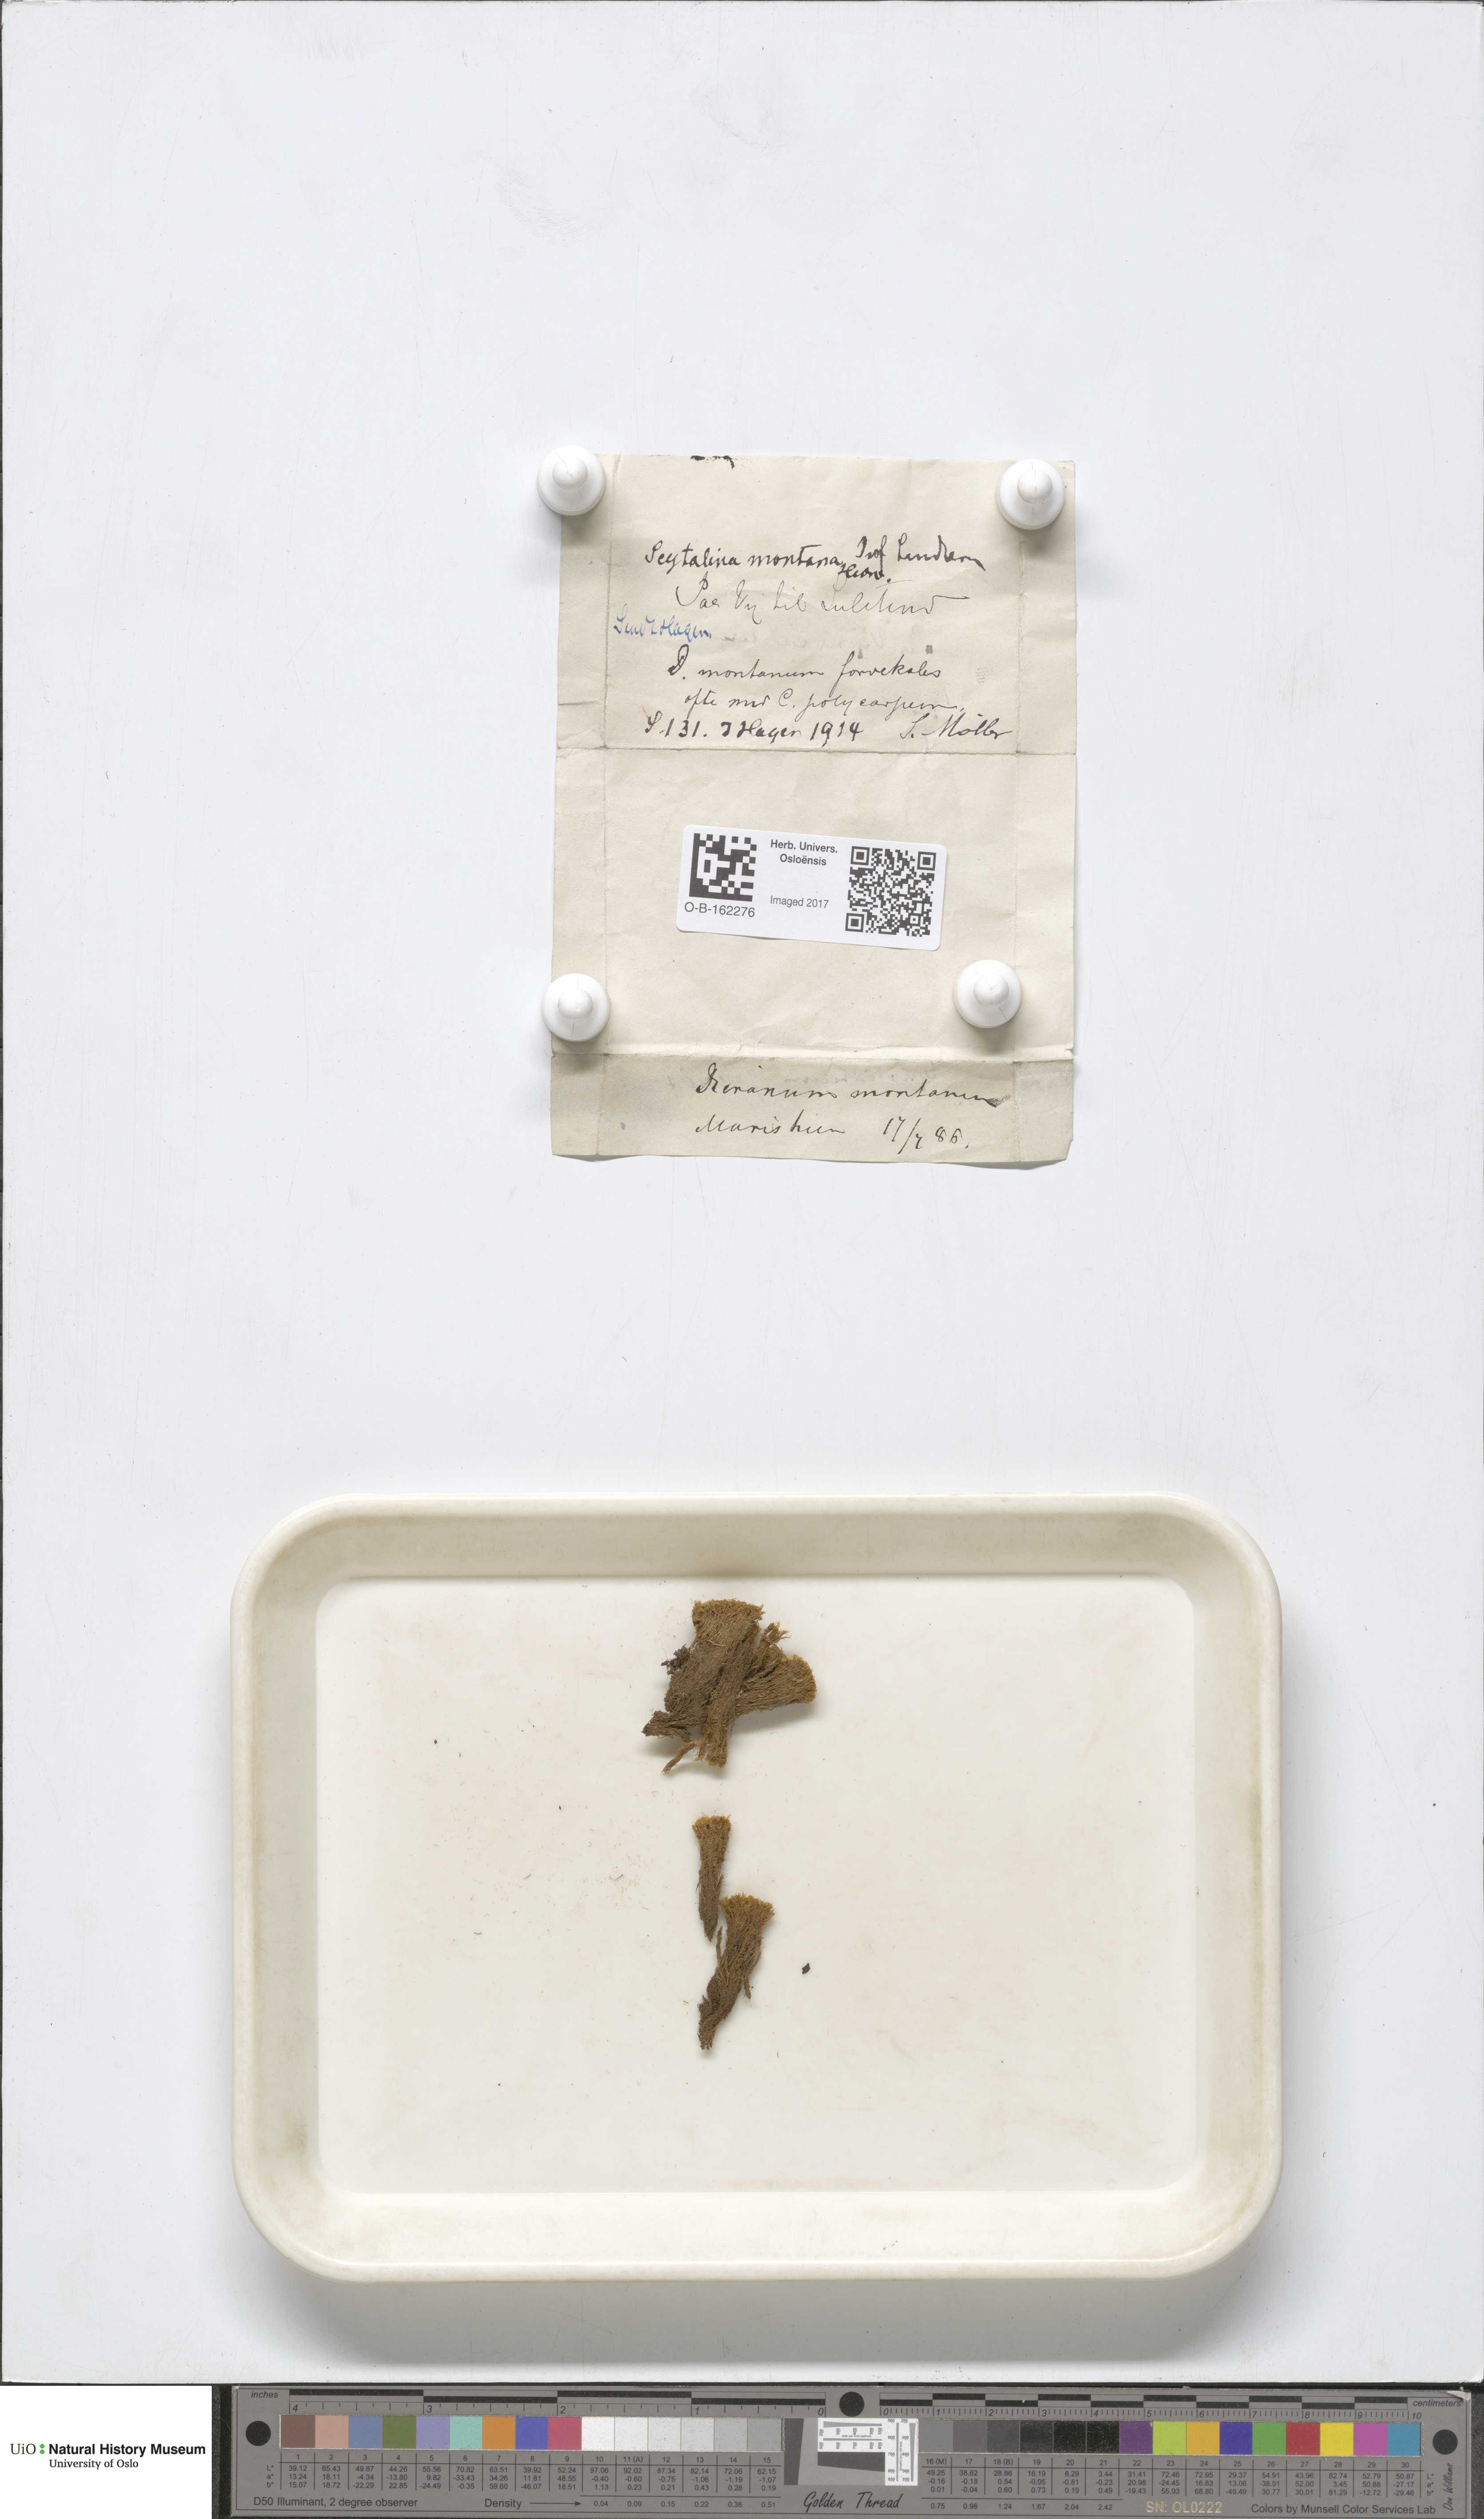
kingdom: Plantae
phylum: Bryophyta
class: Bryopsida
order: Dicranales
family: Dicranaceae
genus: Orthodicranum
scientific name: Orthodicranum montanum
